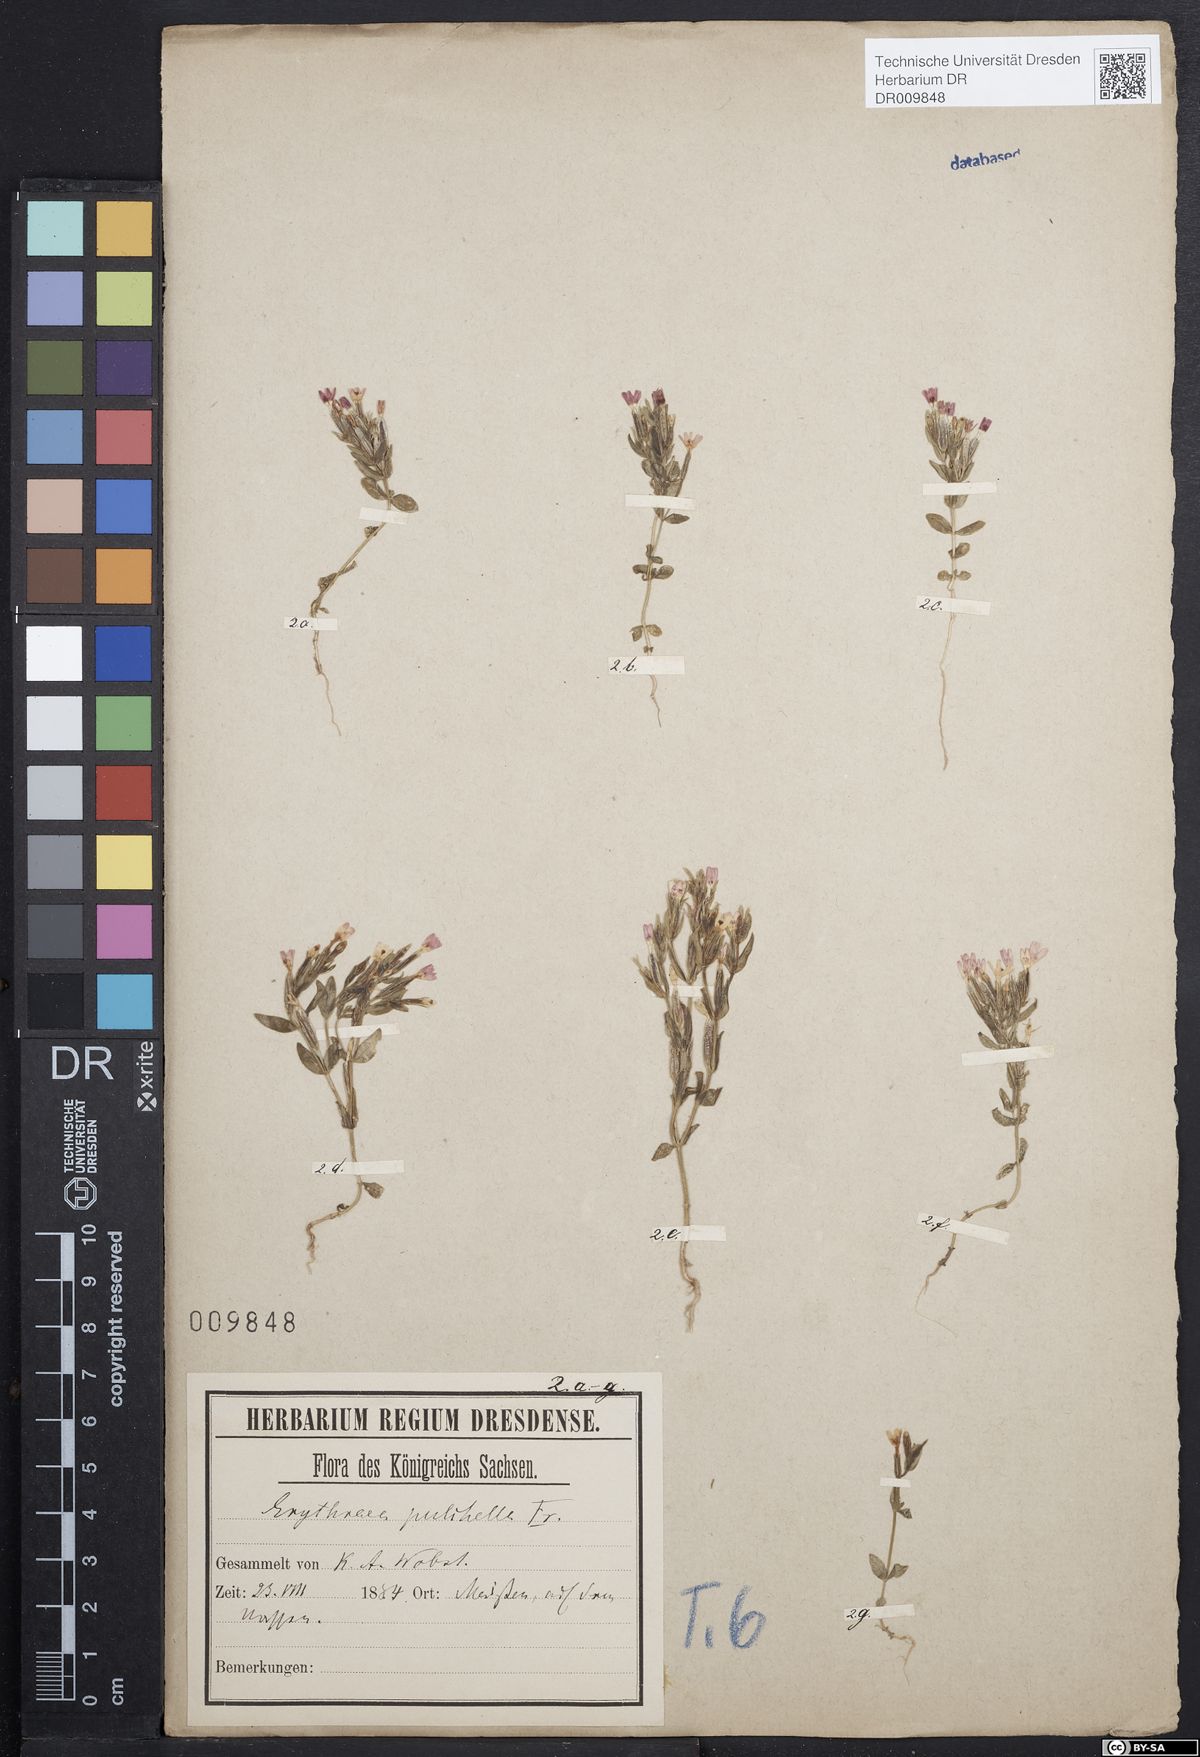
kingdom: Plantae
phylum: Tracheophyta
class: Magnoliopsida
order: Gentianales
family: Gentianaceae
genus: Centaurium
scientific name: Centaurium pulchellum
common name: Lesser centaury
